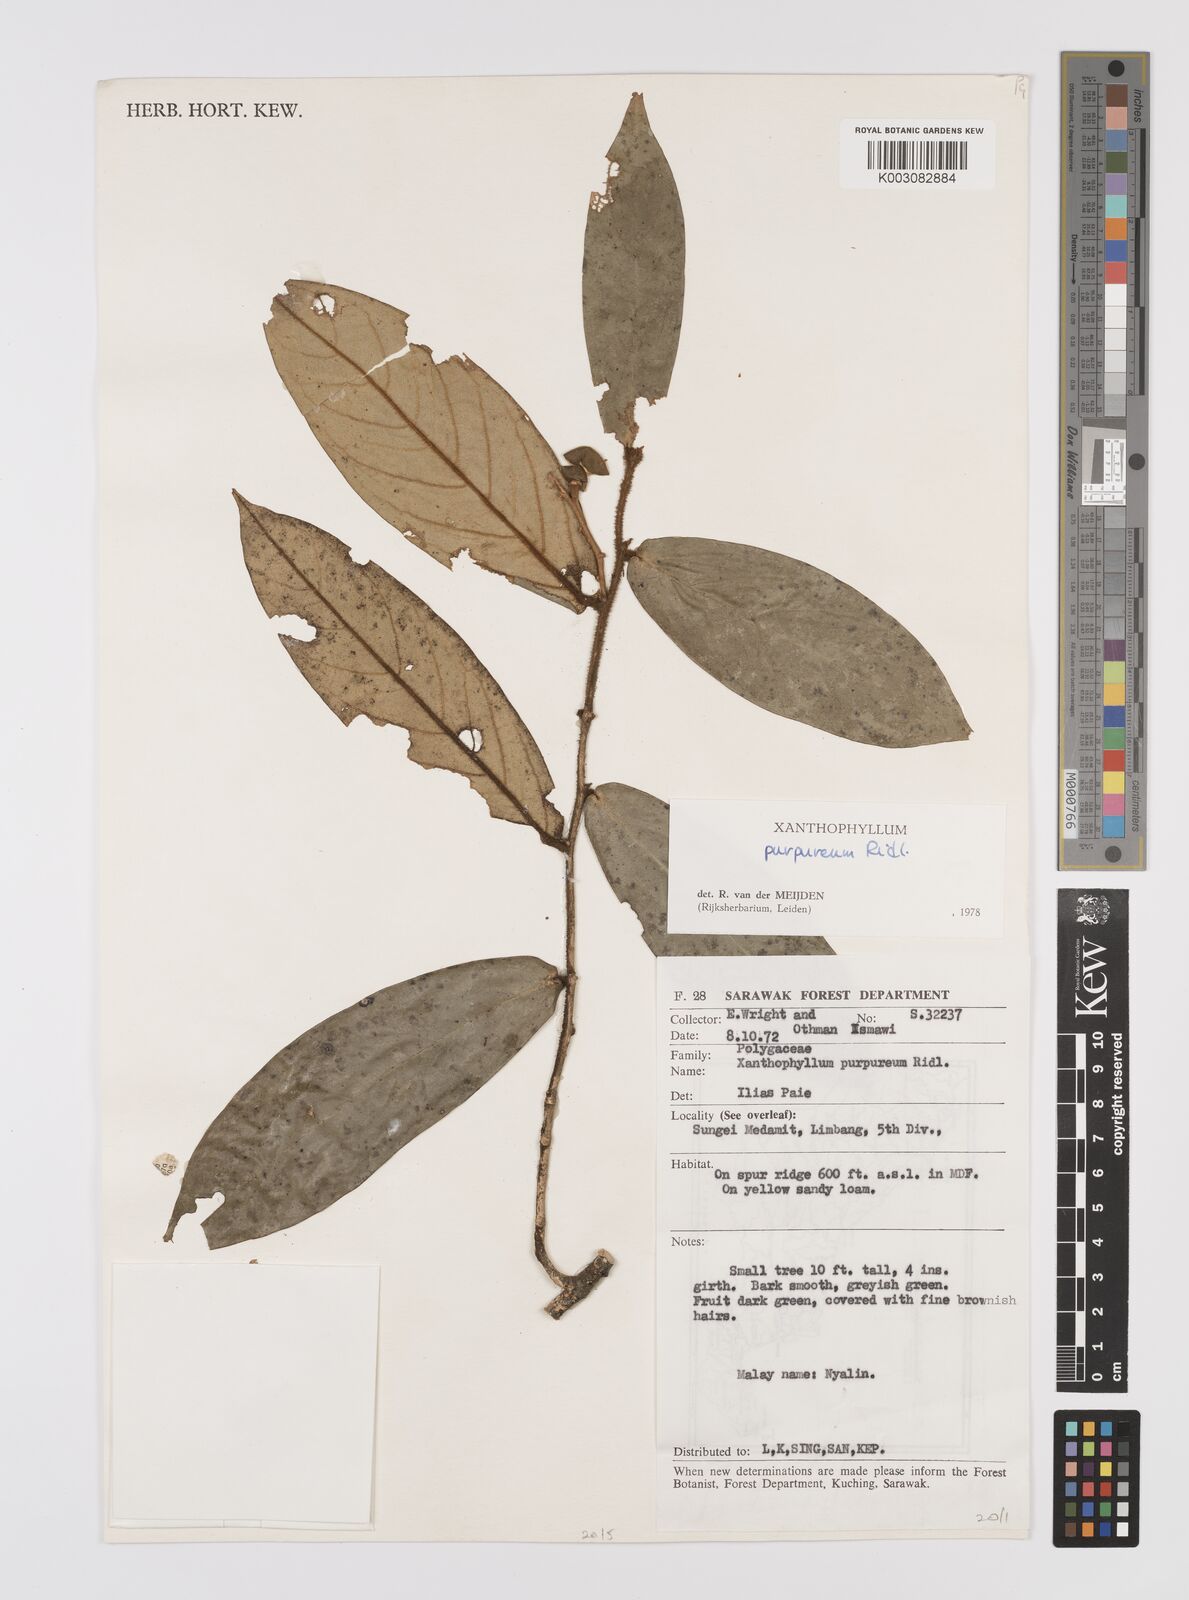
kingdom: Plantae
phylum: Tracheophyta
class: Magnoliopsida
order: Fabales
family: Polygalaceae
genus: Xanthophyllum
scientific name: Xanthophyllum purpureum
